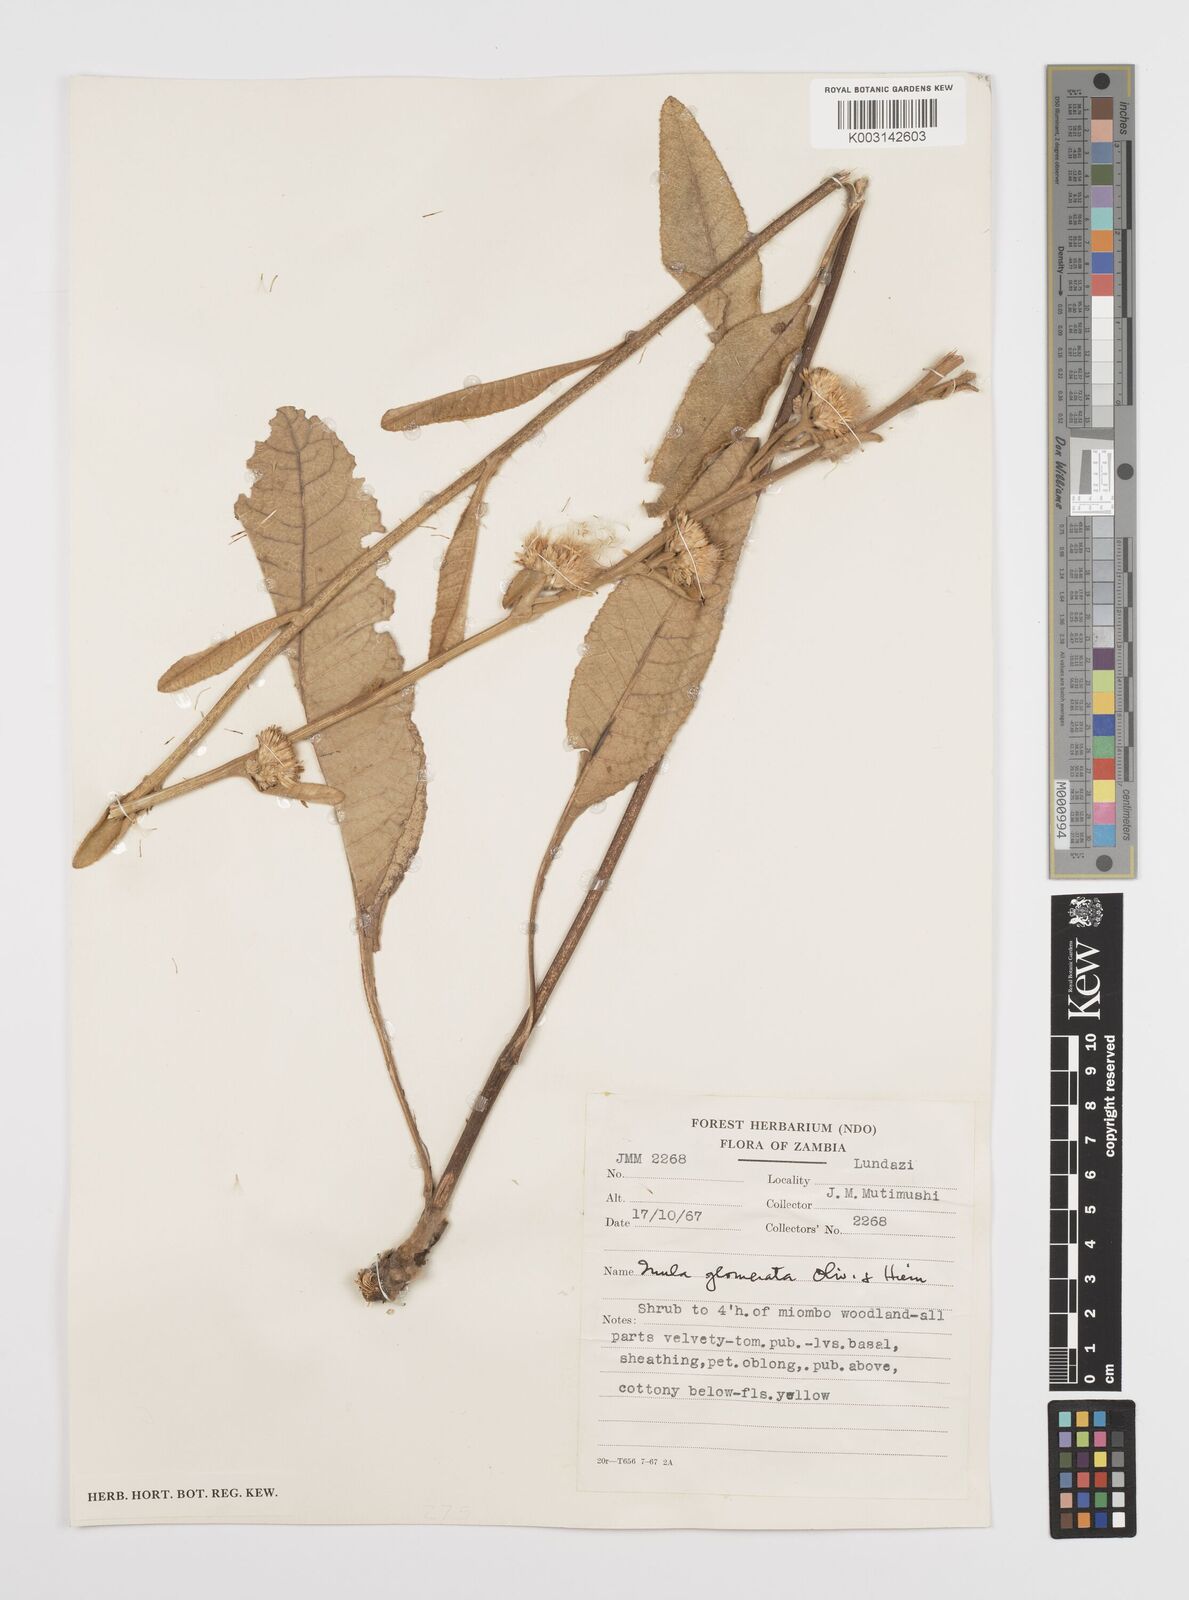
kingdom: Plantae
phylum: Tracheophyta
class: Magnoliopsida
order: Asterales
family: Asteraceae
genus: Inula
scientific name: Inula glomerata
